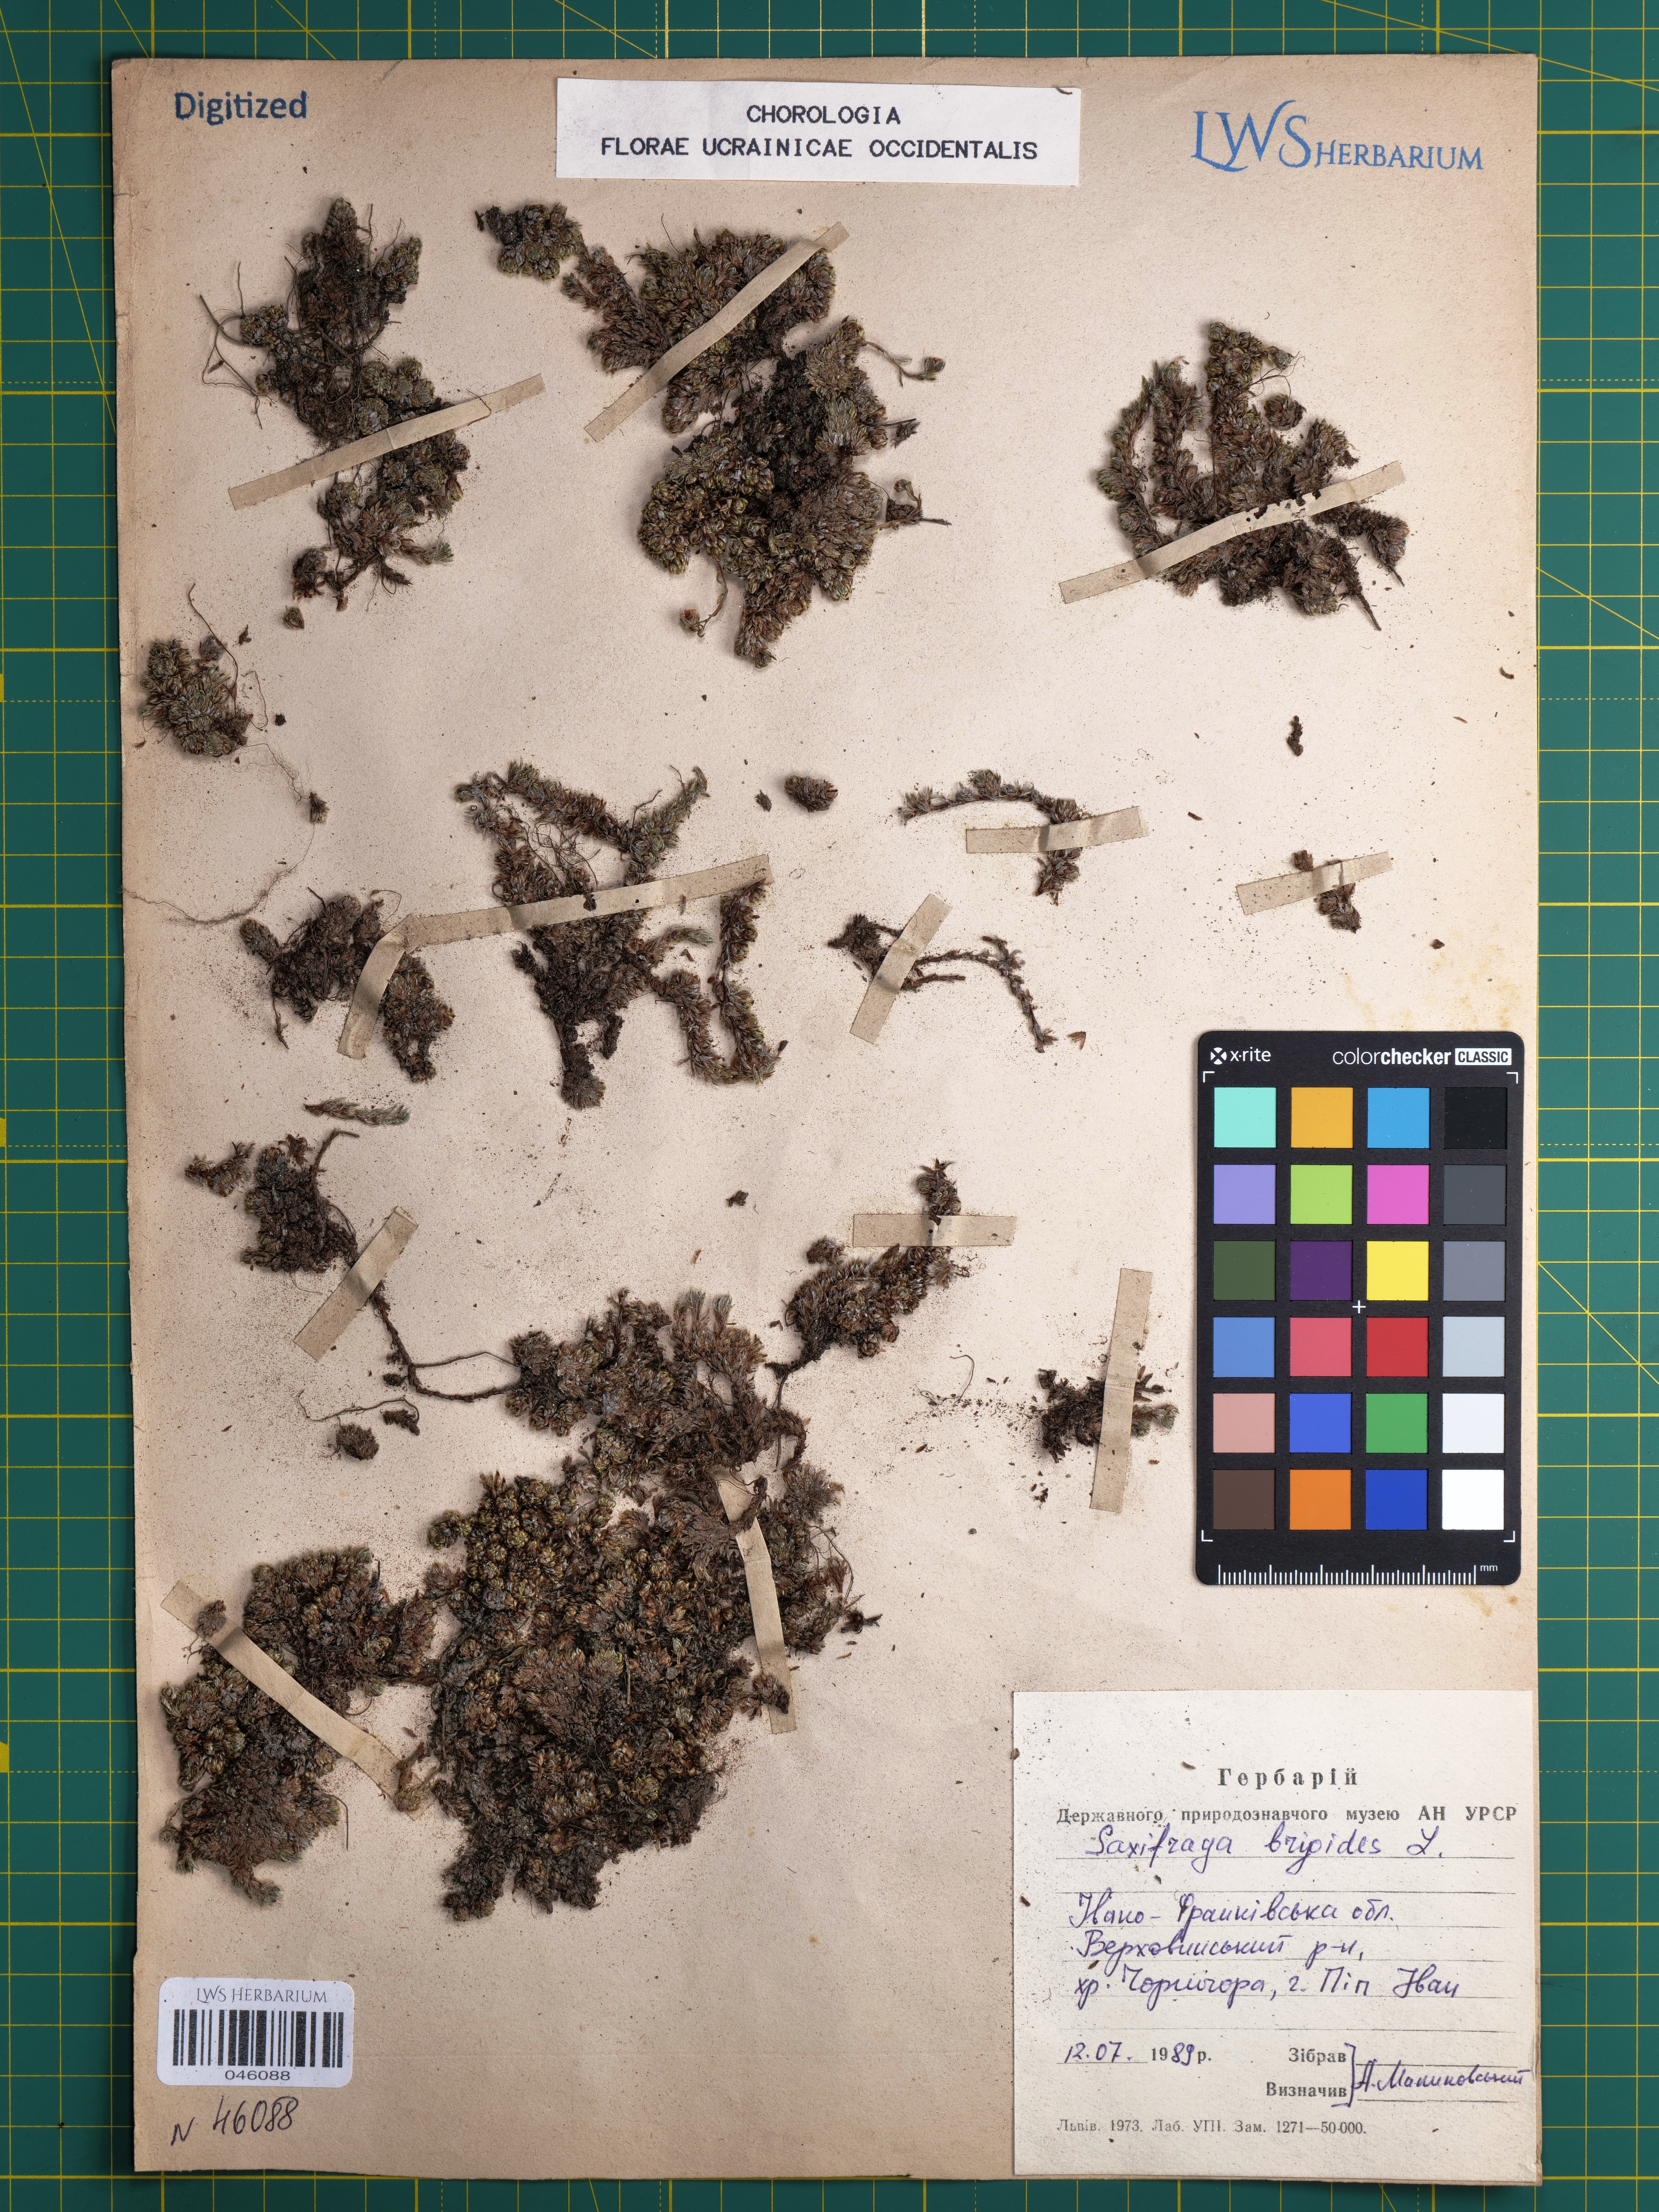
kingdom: Plantae
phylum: Tracheophyta
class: Magnoliopsida
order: Saxifragales
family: Saxifragaceae
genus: Saxifraga
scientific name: Saxifraga bryoides
